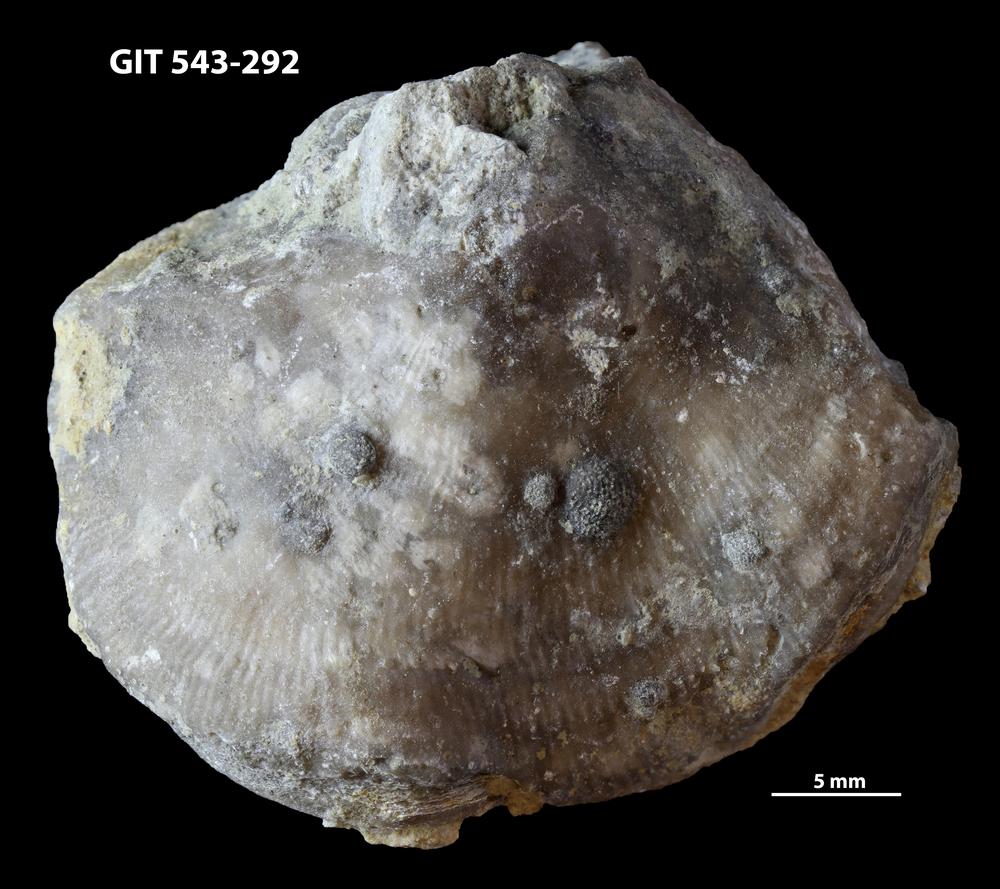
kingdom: Animalia
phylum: Brachiopoda
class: Rhynchonellata
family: Clitambonitidae
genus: Ilmarinia
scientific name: Ilmarinia dimorpha
